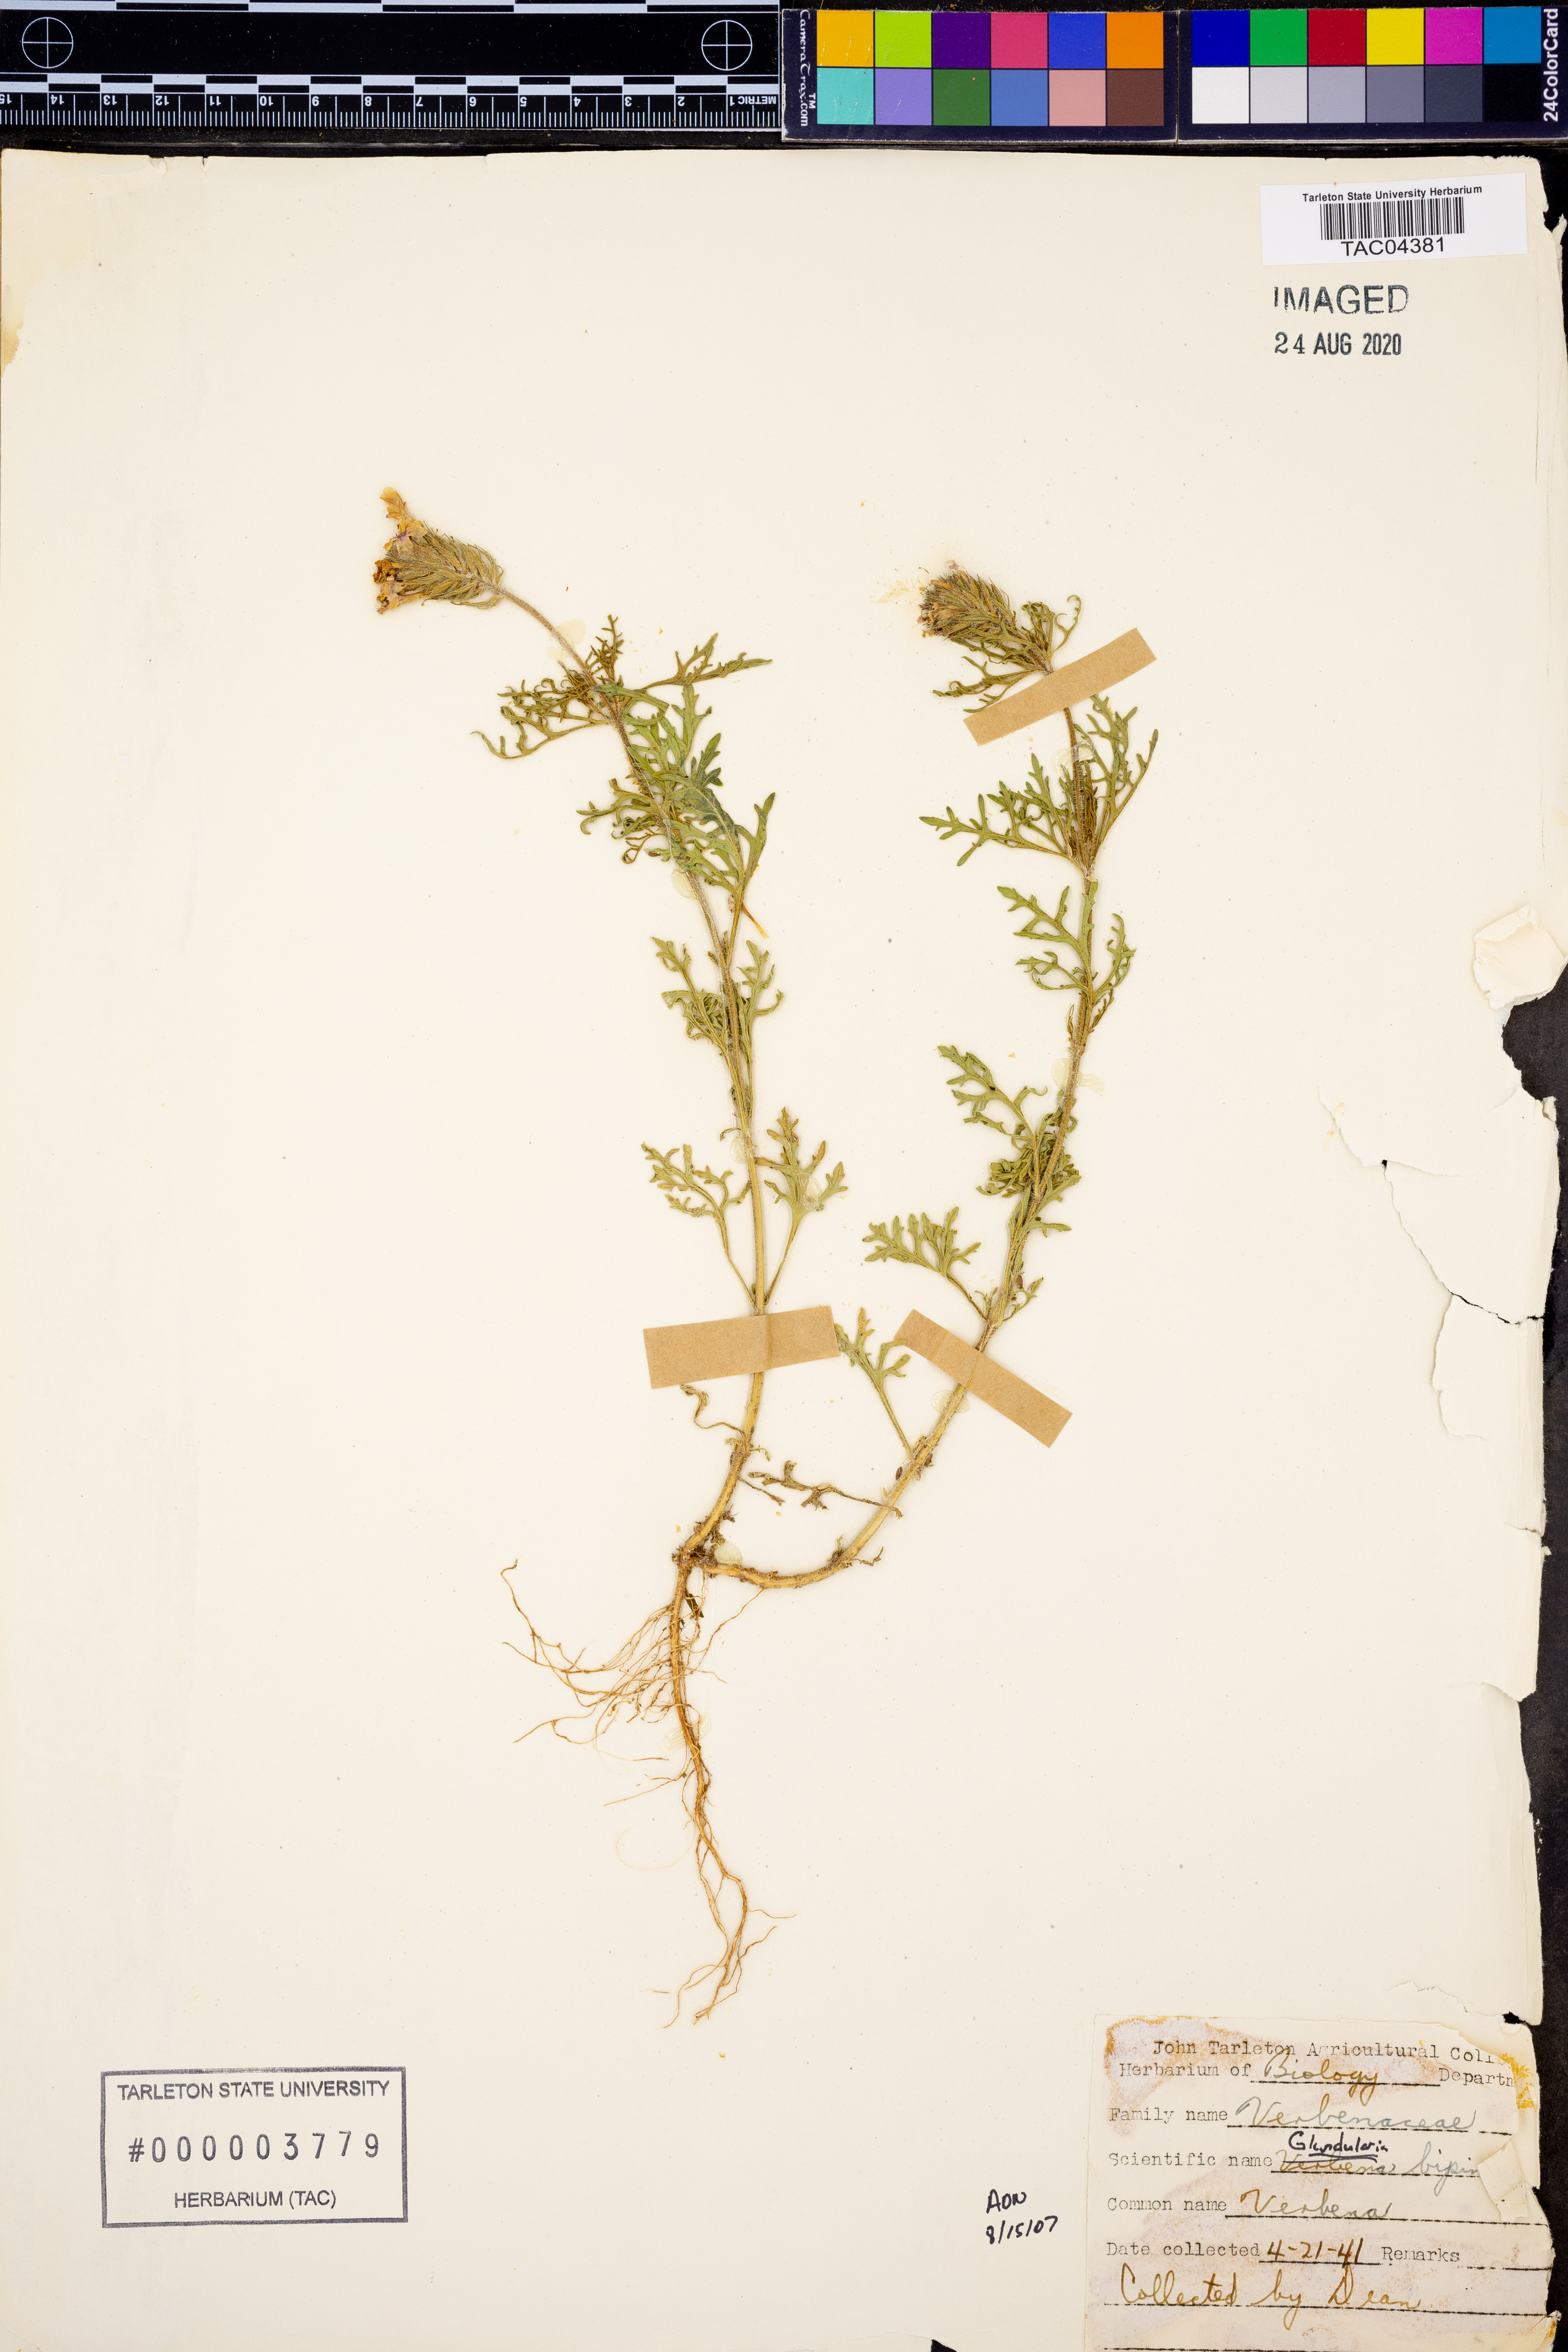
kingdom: Plantae
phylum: Tracheophyta
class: Magnoliopsida
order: Lamiales
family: Verbenaceae
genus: Verbena
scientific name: Verbena bipinnatifida
